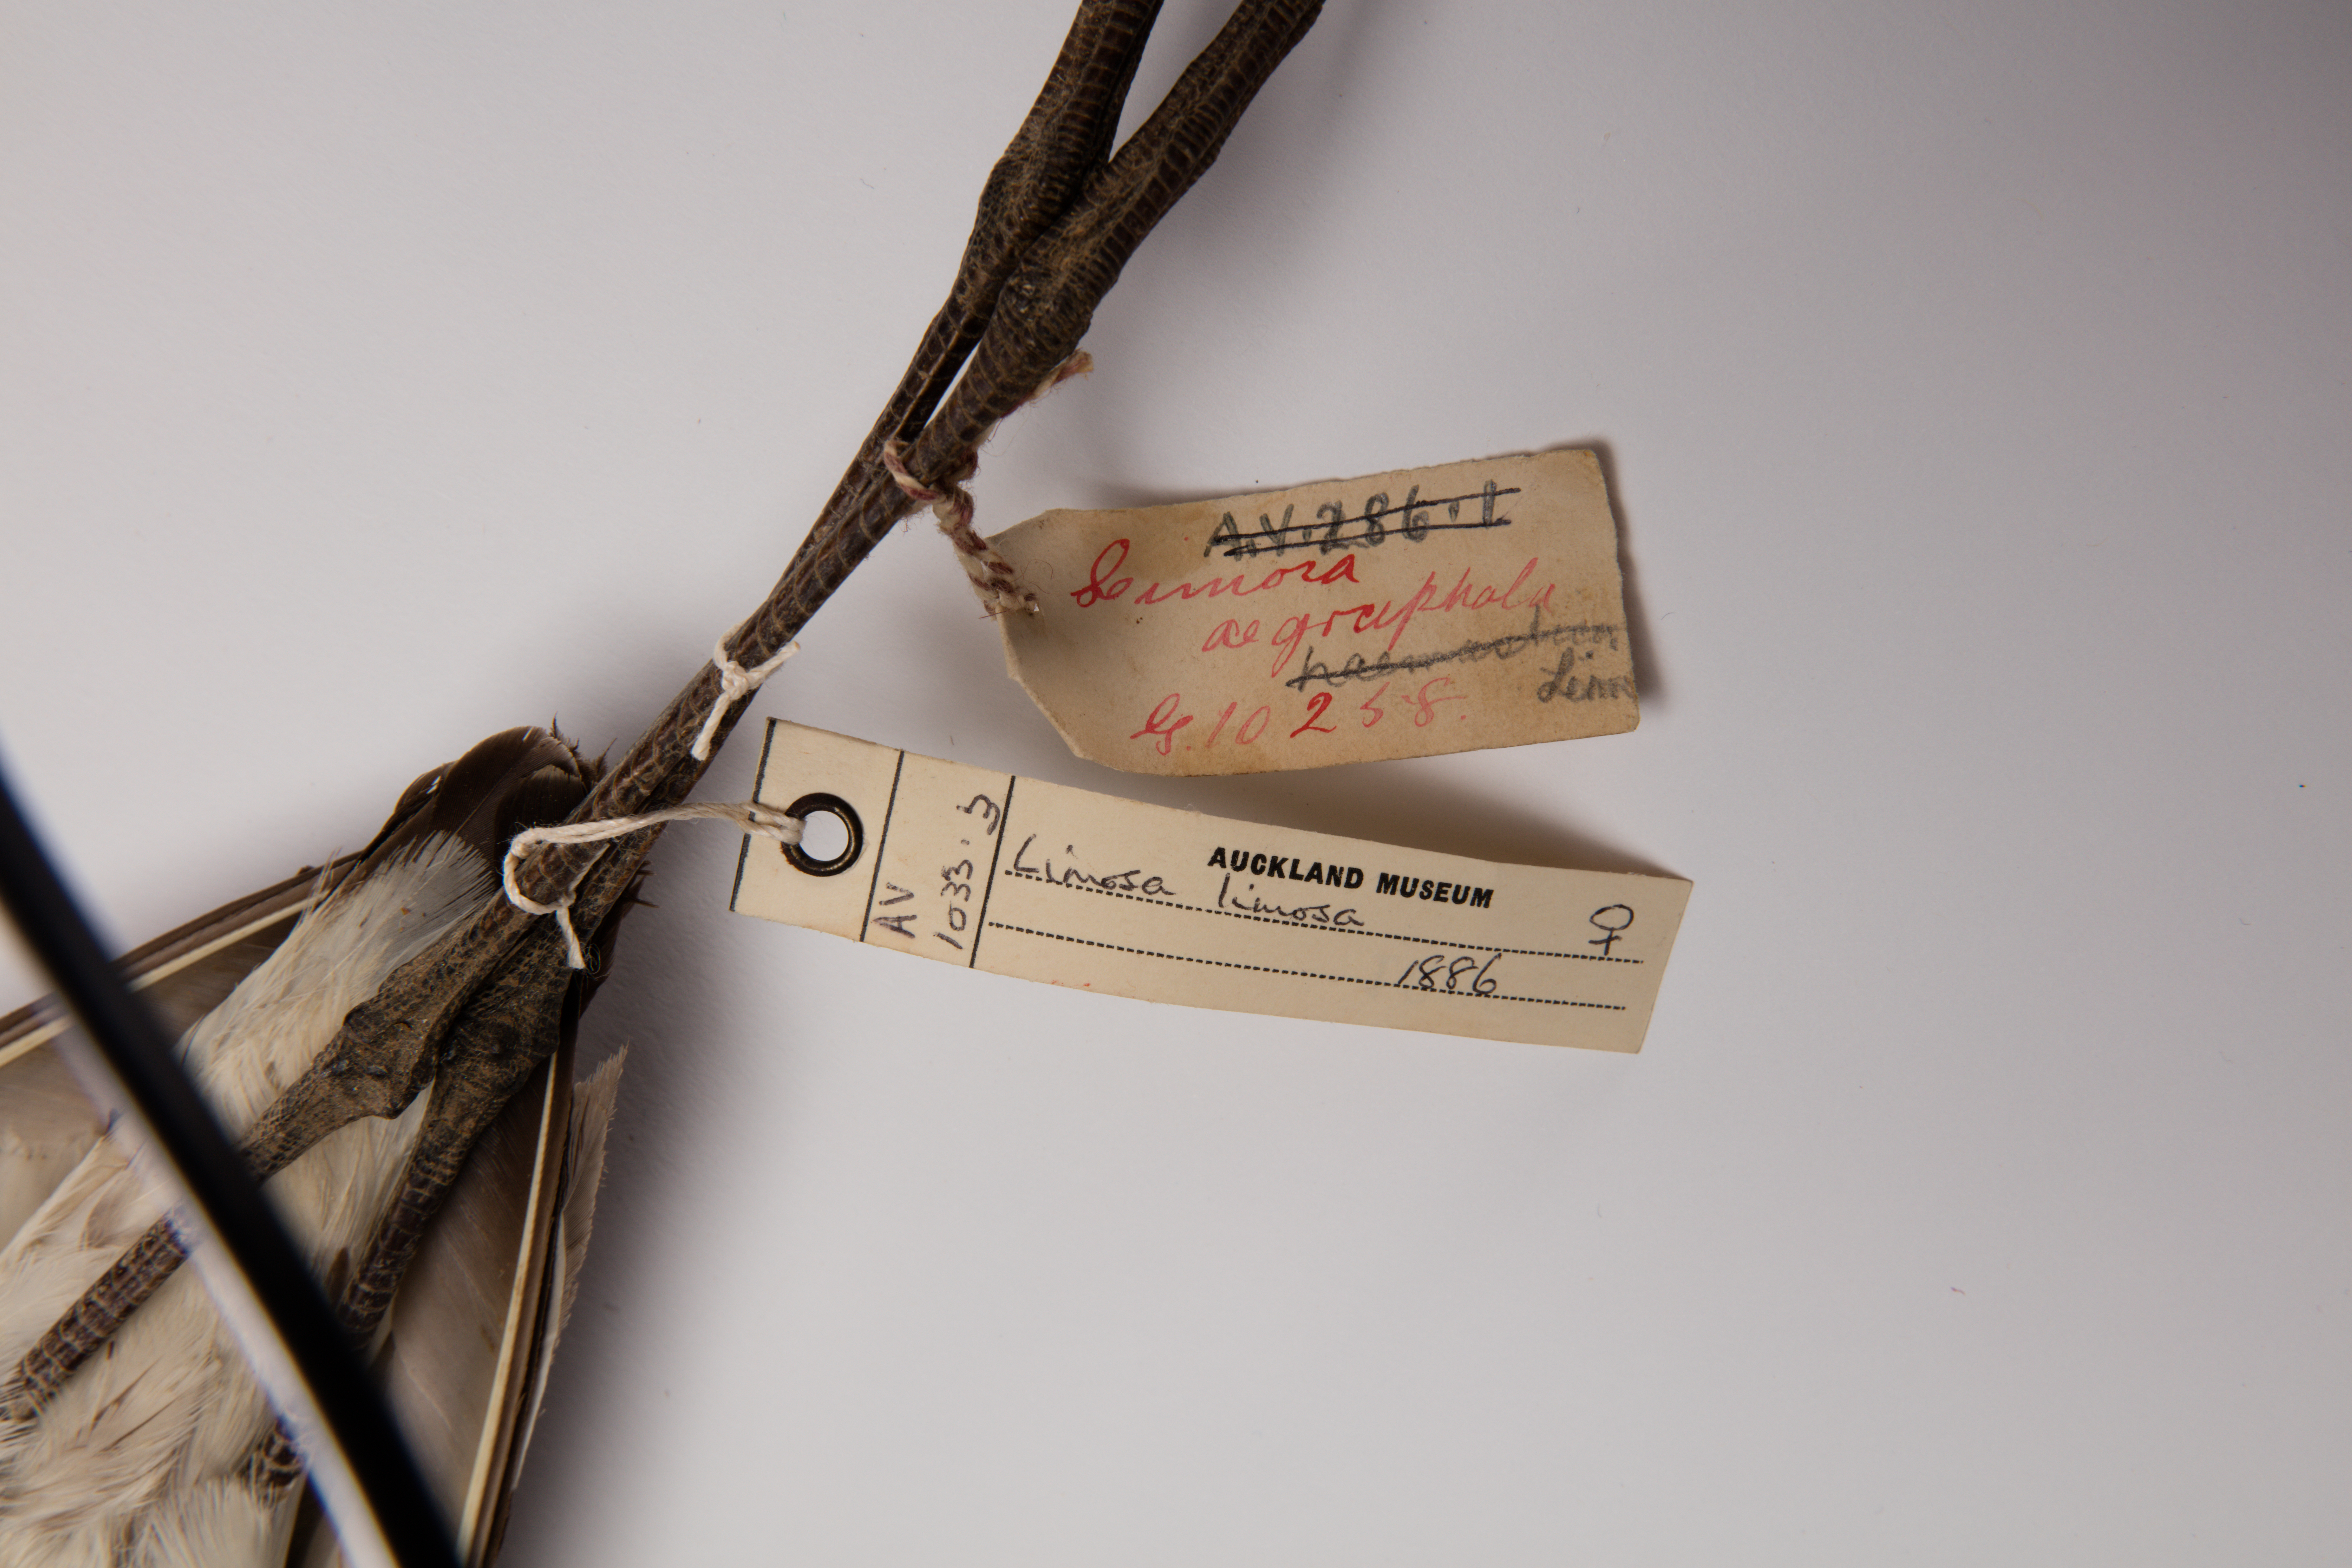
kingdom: Animalia
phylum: Chordata
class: Aves
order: Charadriiformes
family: Scolopacidae
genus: Limosa
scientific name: Limosa limosa
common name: Black-tailed godwit
